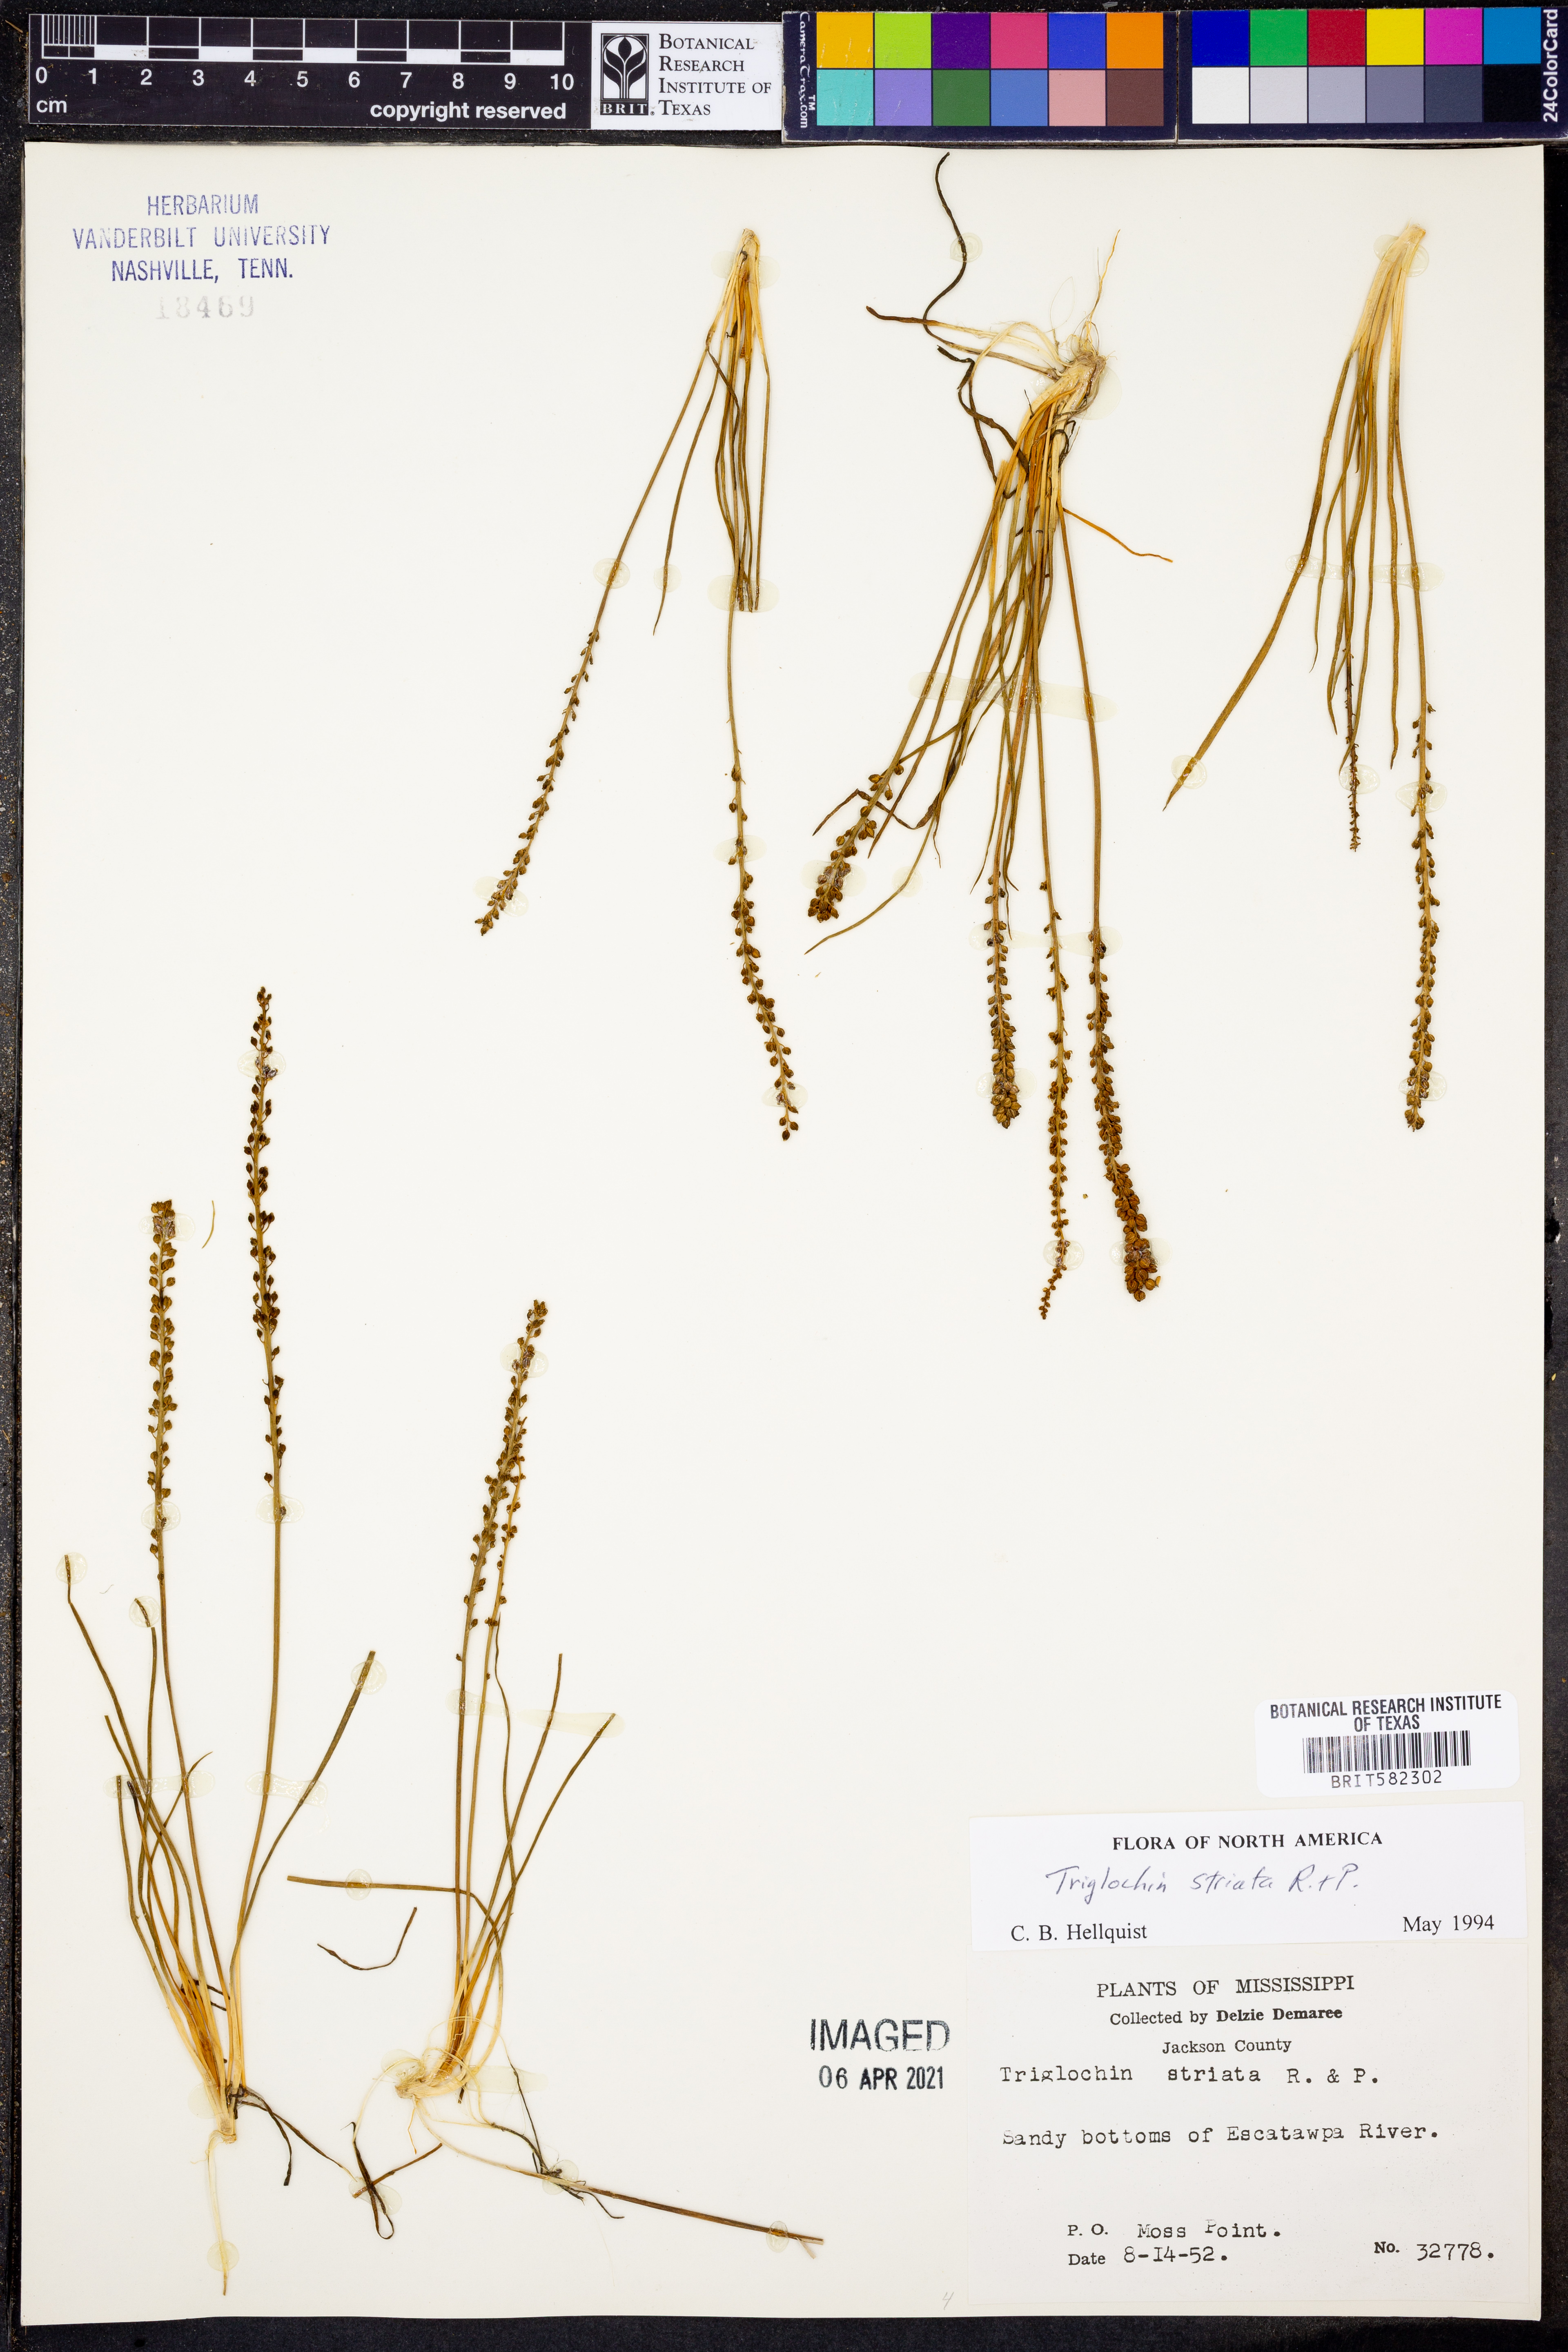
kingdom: Plantae
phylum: Tracheophyta
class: Liliopsida
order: Alismatales
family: Juncaginaceae
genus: Triglochin
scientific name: Triglochin striata
